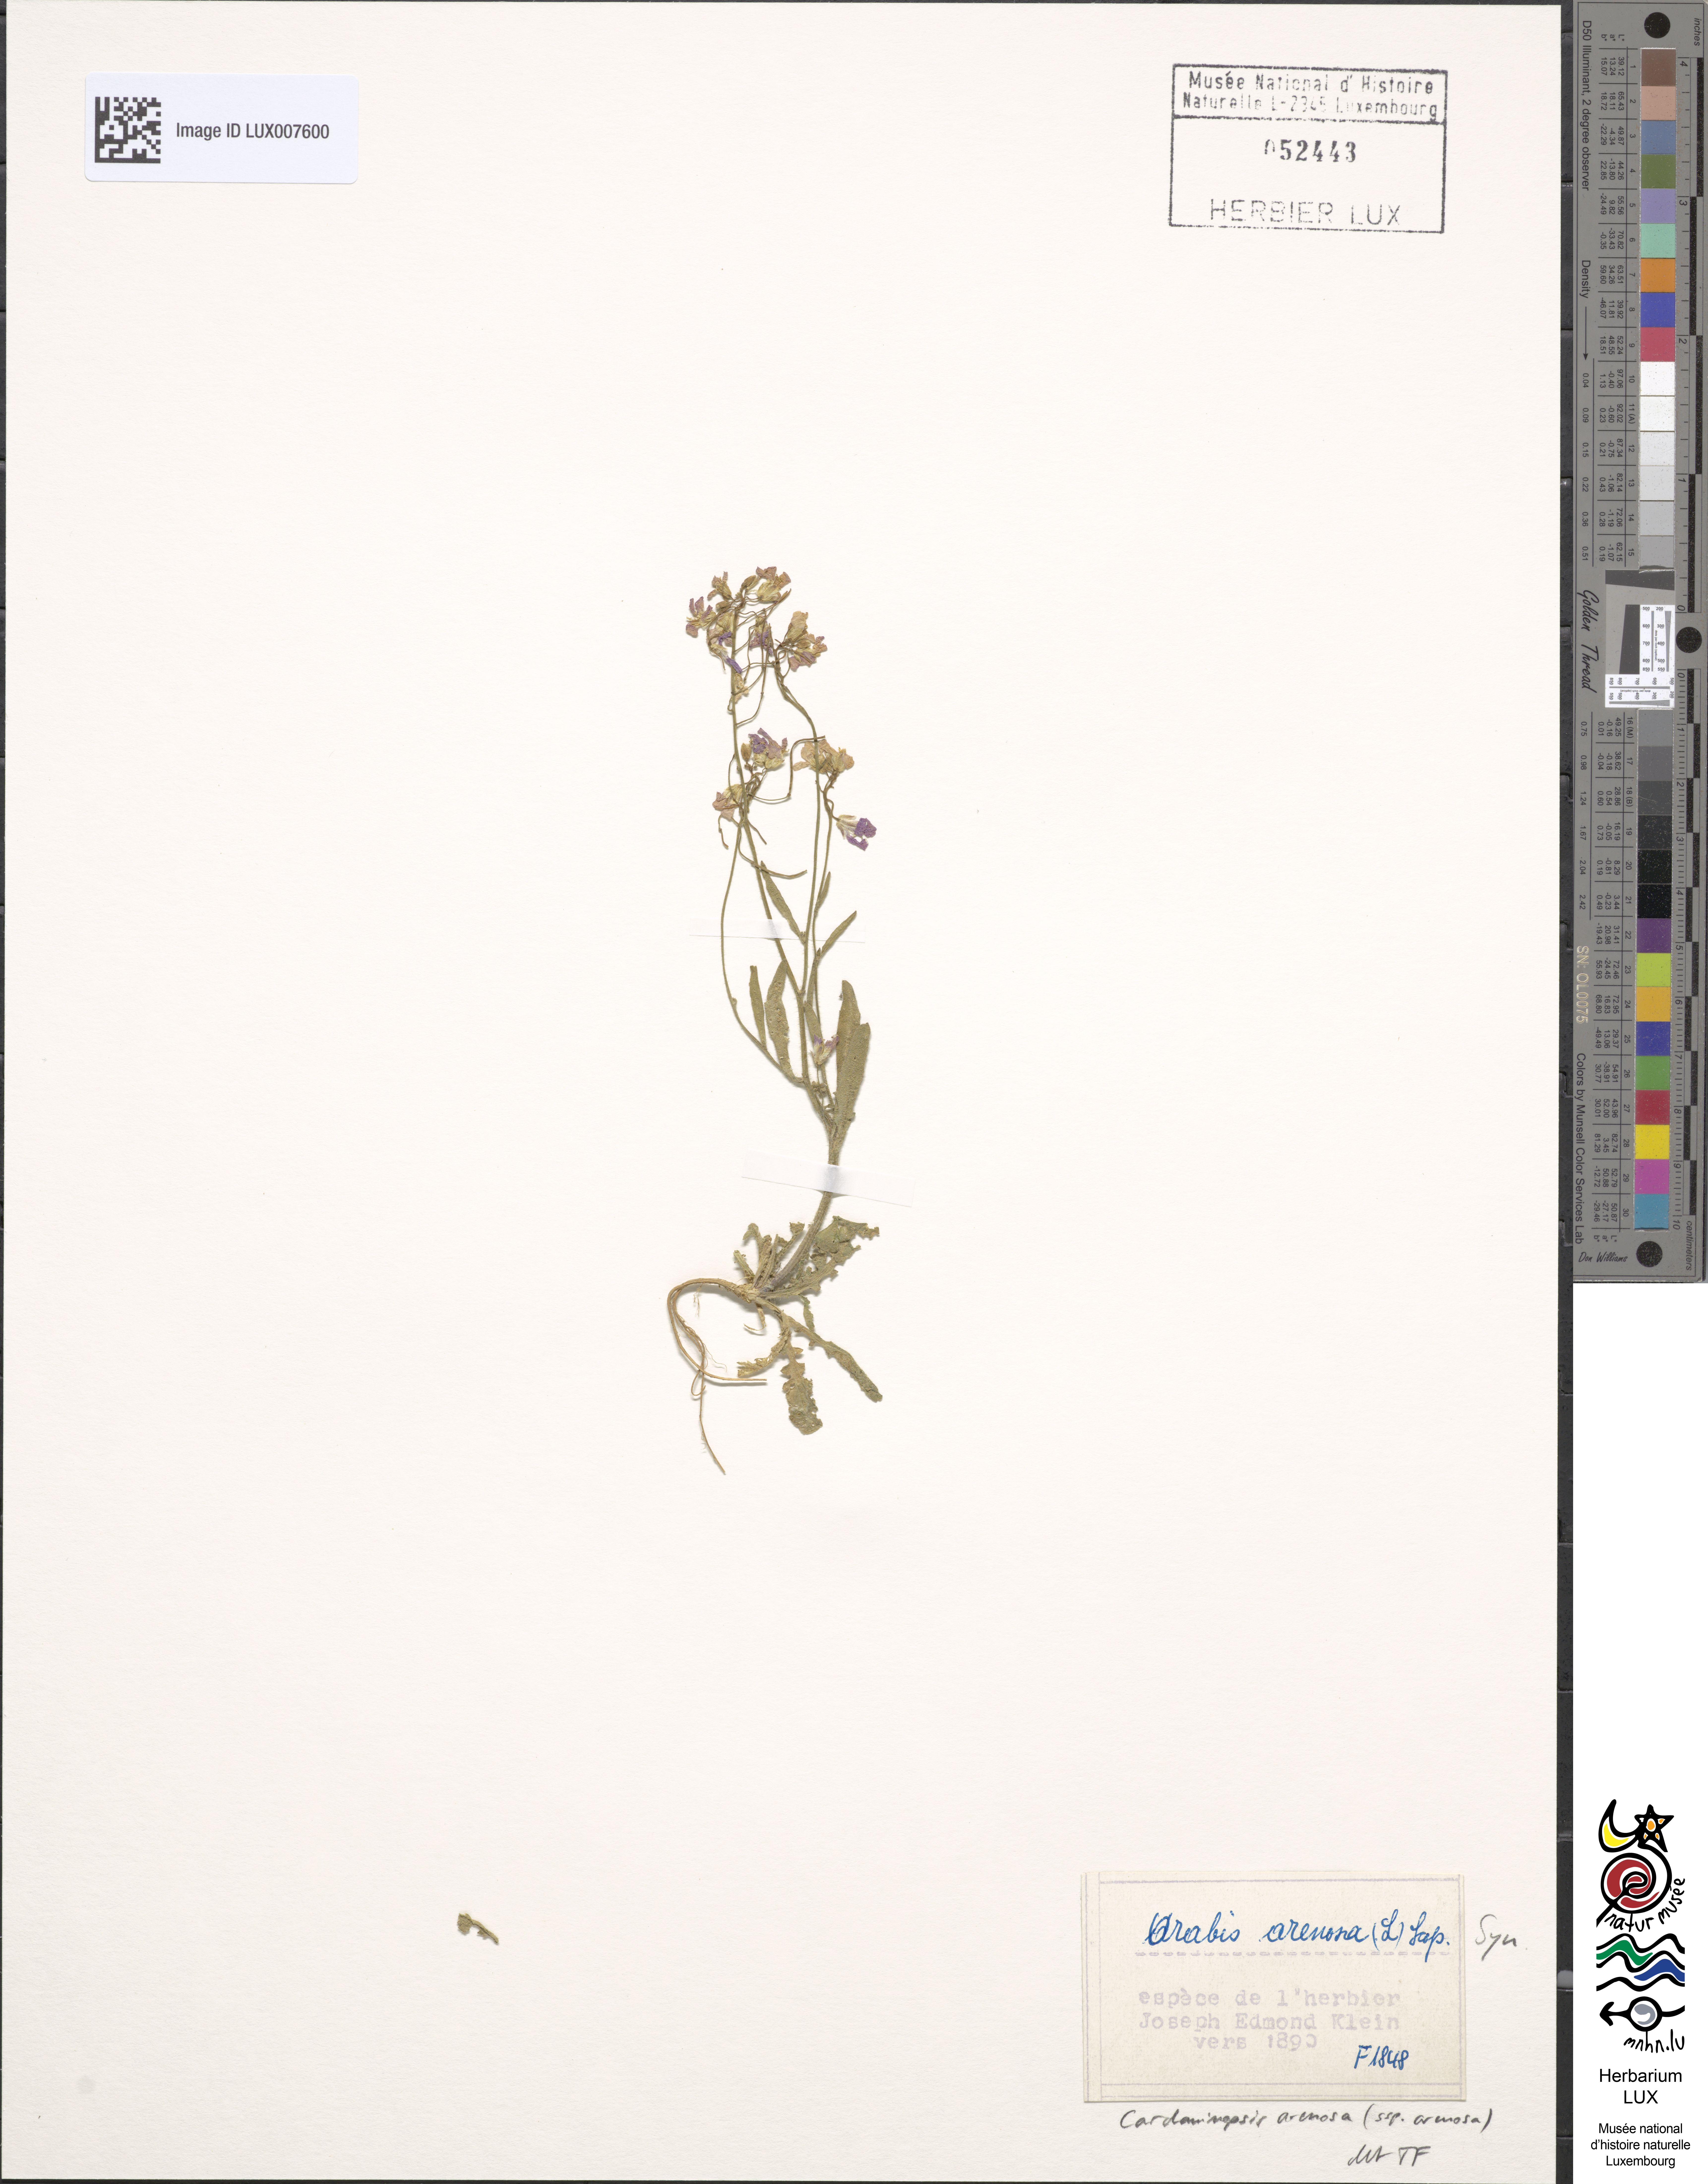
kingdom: Plantae
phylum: Tracheophyta
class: Magnoliopsida
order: Brassicales
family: Brassicaceae
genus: Arabidopsis
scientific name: Arabidopsis arenosa
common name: Sand rock-cress
